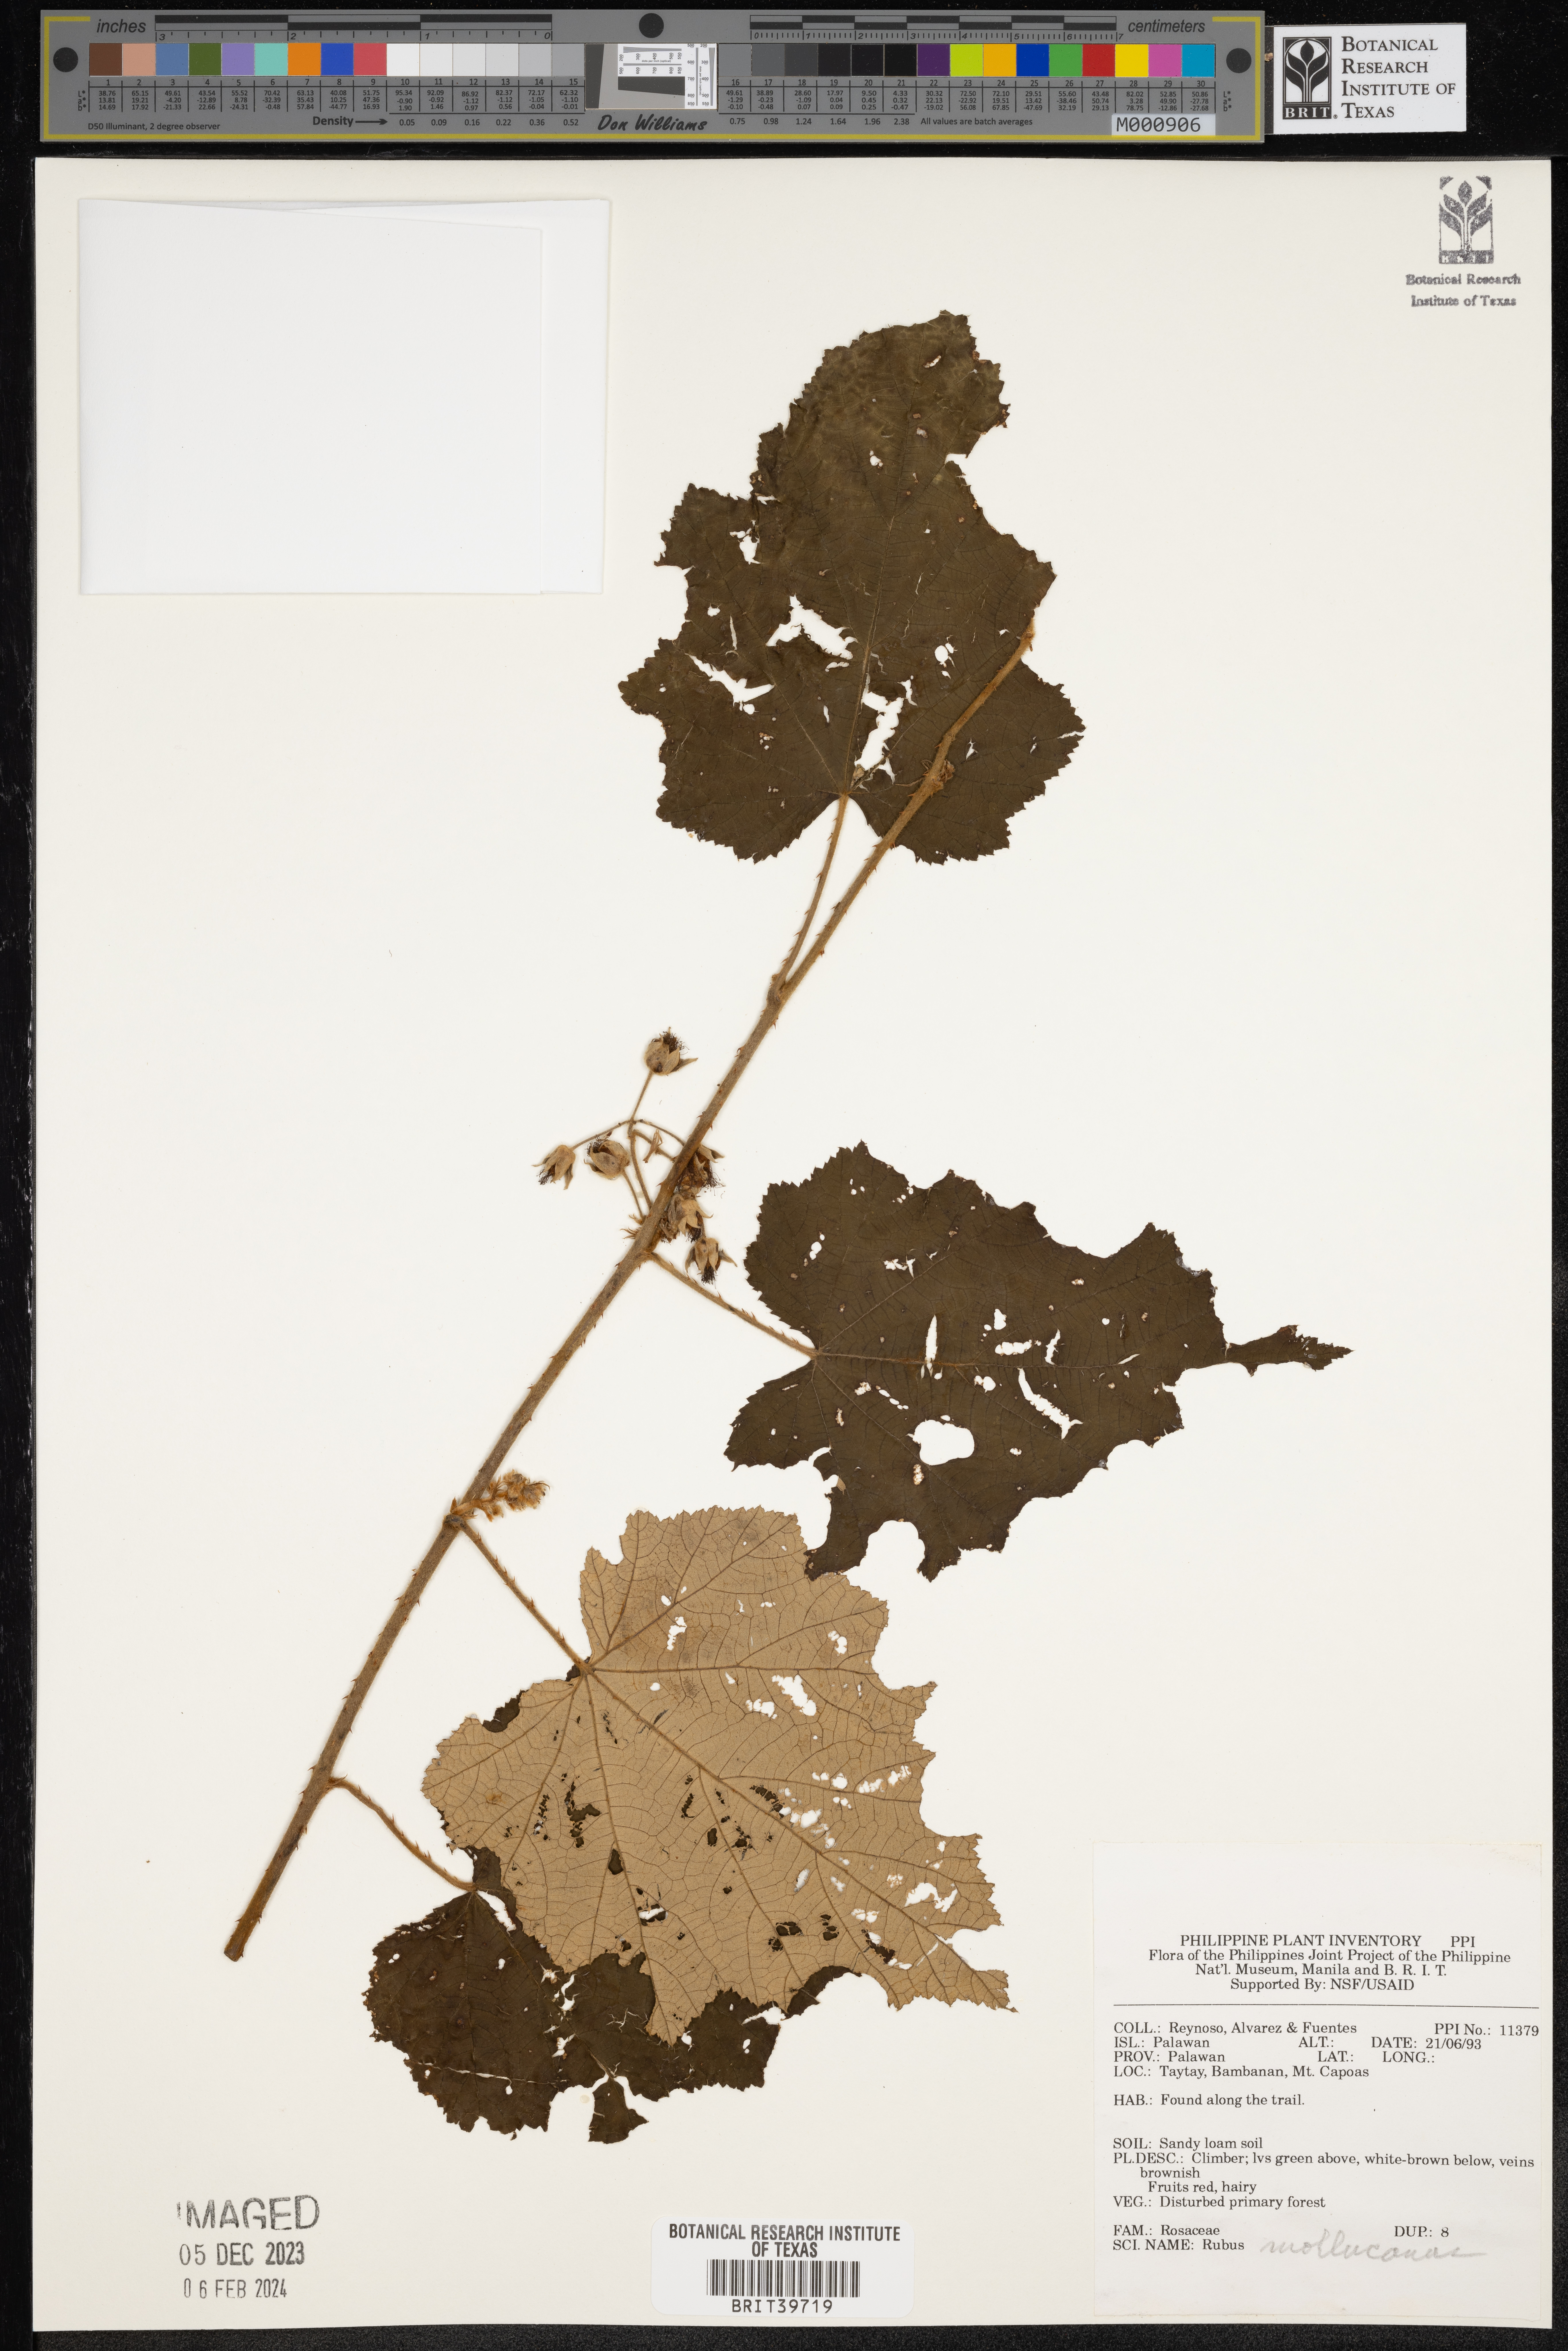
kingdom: Plantae
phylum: Tracheophyta
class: Magnoliopsida
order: Rosales
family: Rosaceae
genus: Rubus
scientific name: Rubus moluccanus
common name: Wild raspberry
